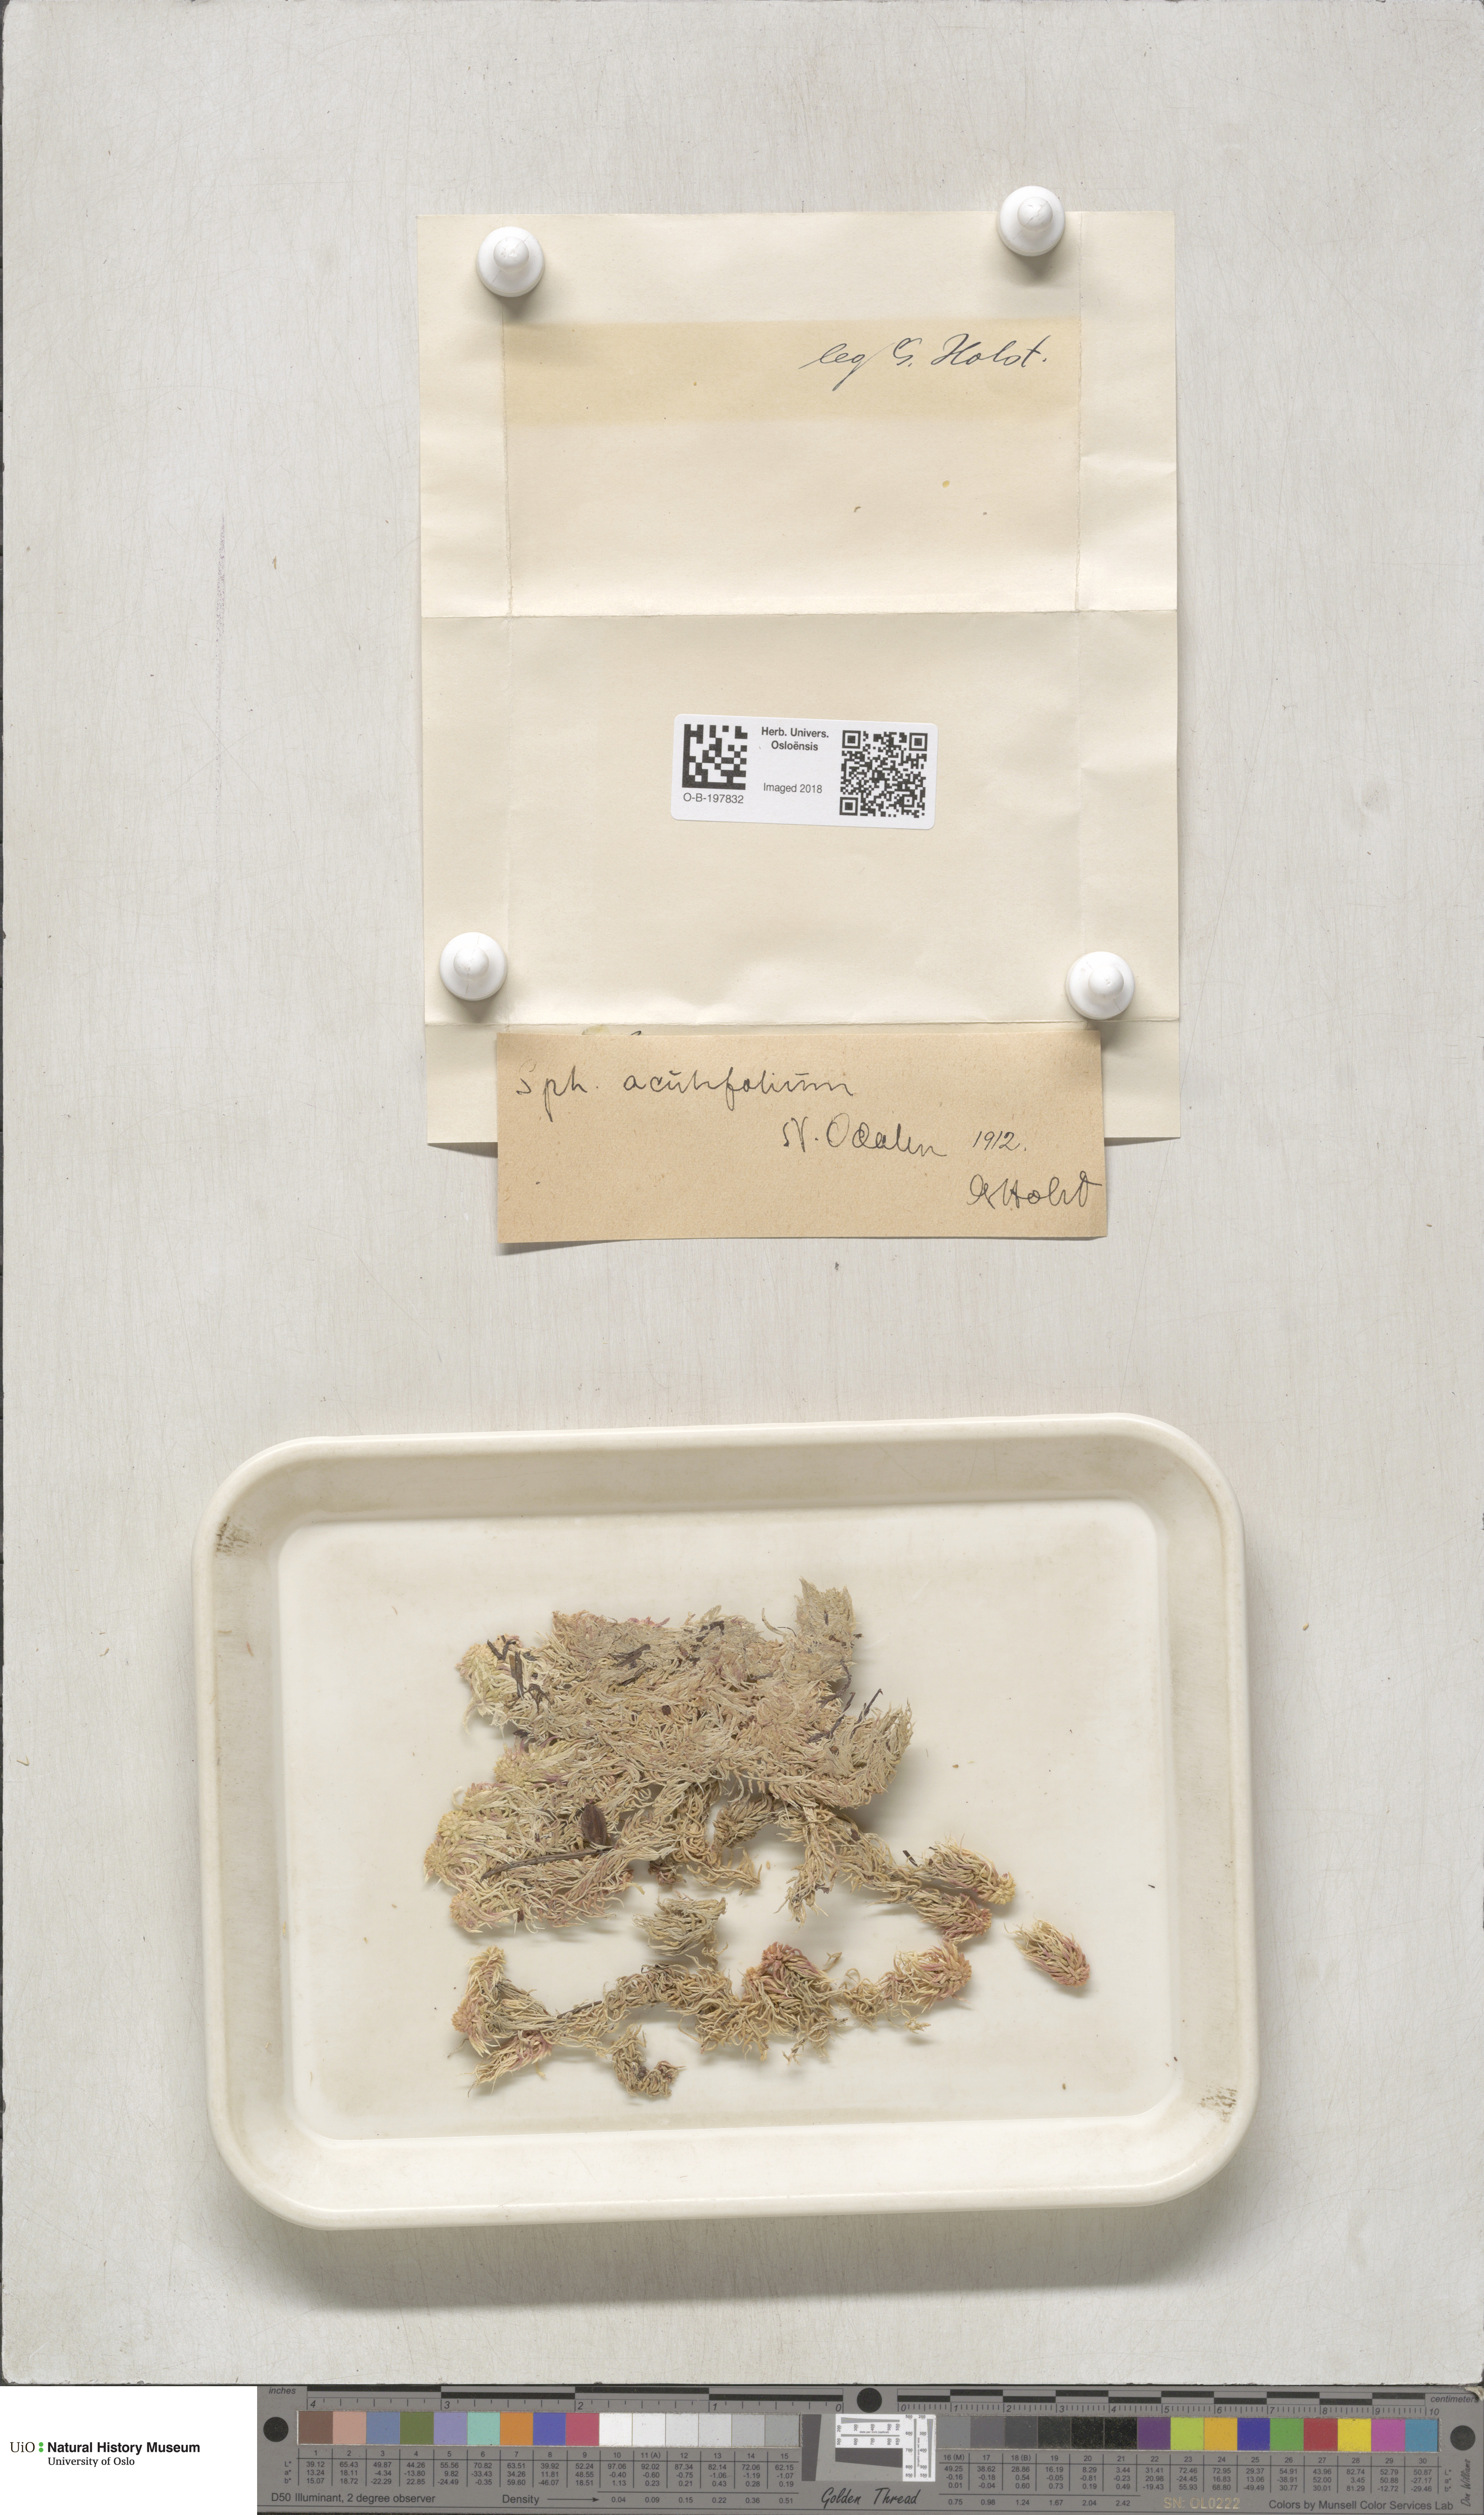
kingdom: Plantae
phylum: Bryophyta
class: Sphagnopsida
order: Sphagnales
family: Sphagnaceae
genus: Sphagnum
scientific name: Sphagnum capillifolium
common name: Small red peat moss
